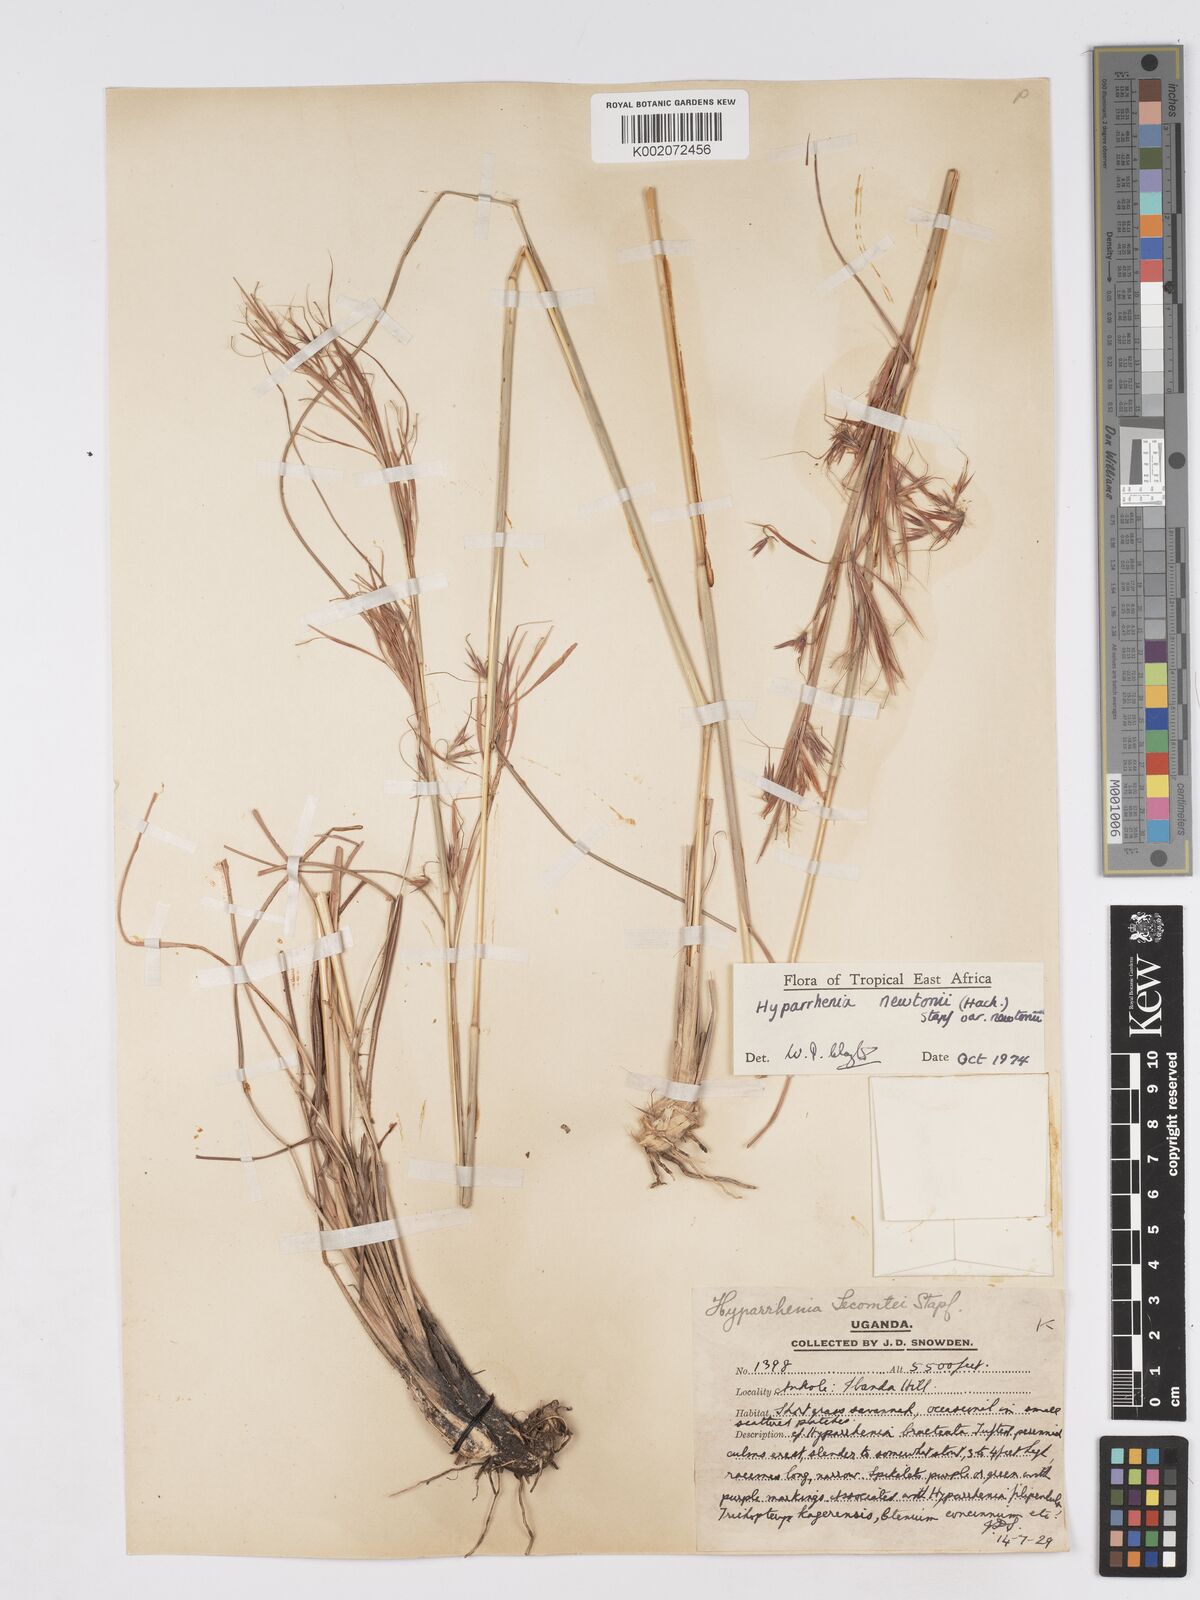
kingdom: Plantae
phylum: Tracheophyta
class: Liliopsida
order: Poales
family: Poaceae
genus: Hyparrhenia
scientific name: Hyparrhenia newtonii
